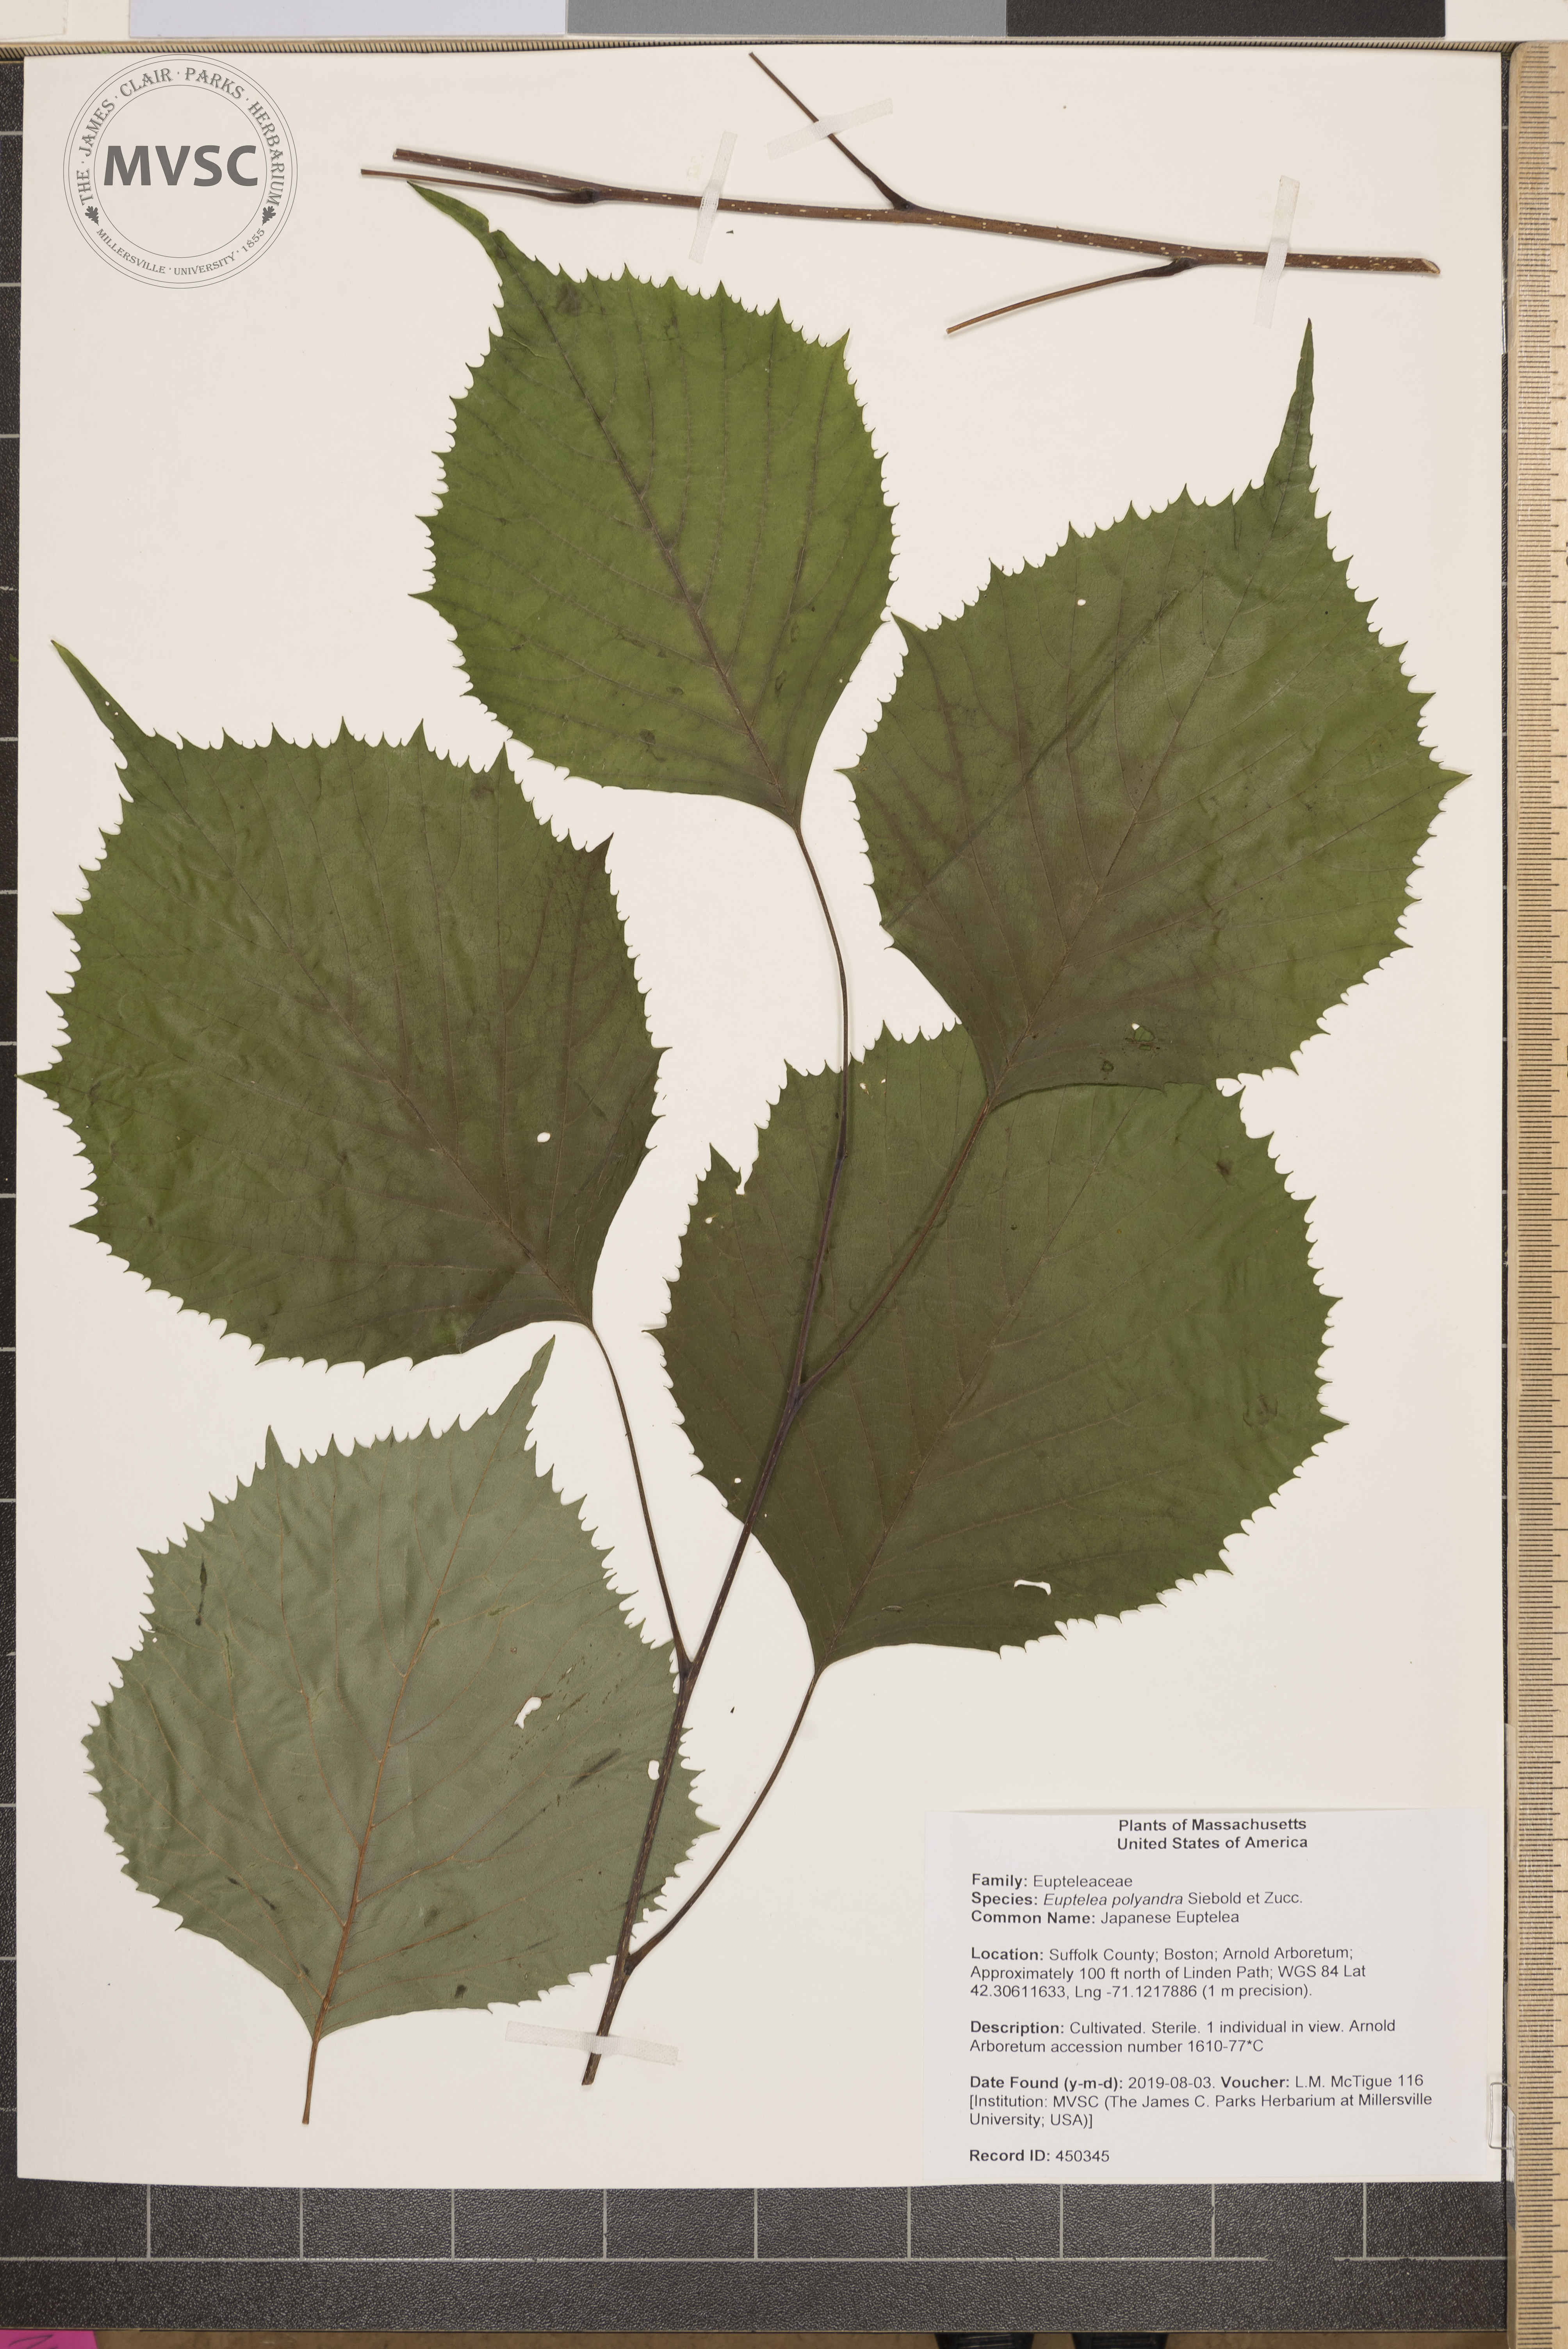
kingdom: Plantae
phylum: Tracheophyta
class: Magnoliopsida
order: Ranunculales
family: Eupteleaceae
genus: Euptelea
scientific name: Euptelea polyandra
